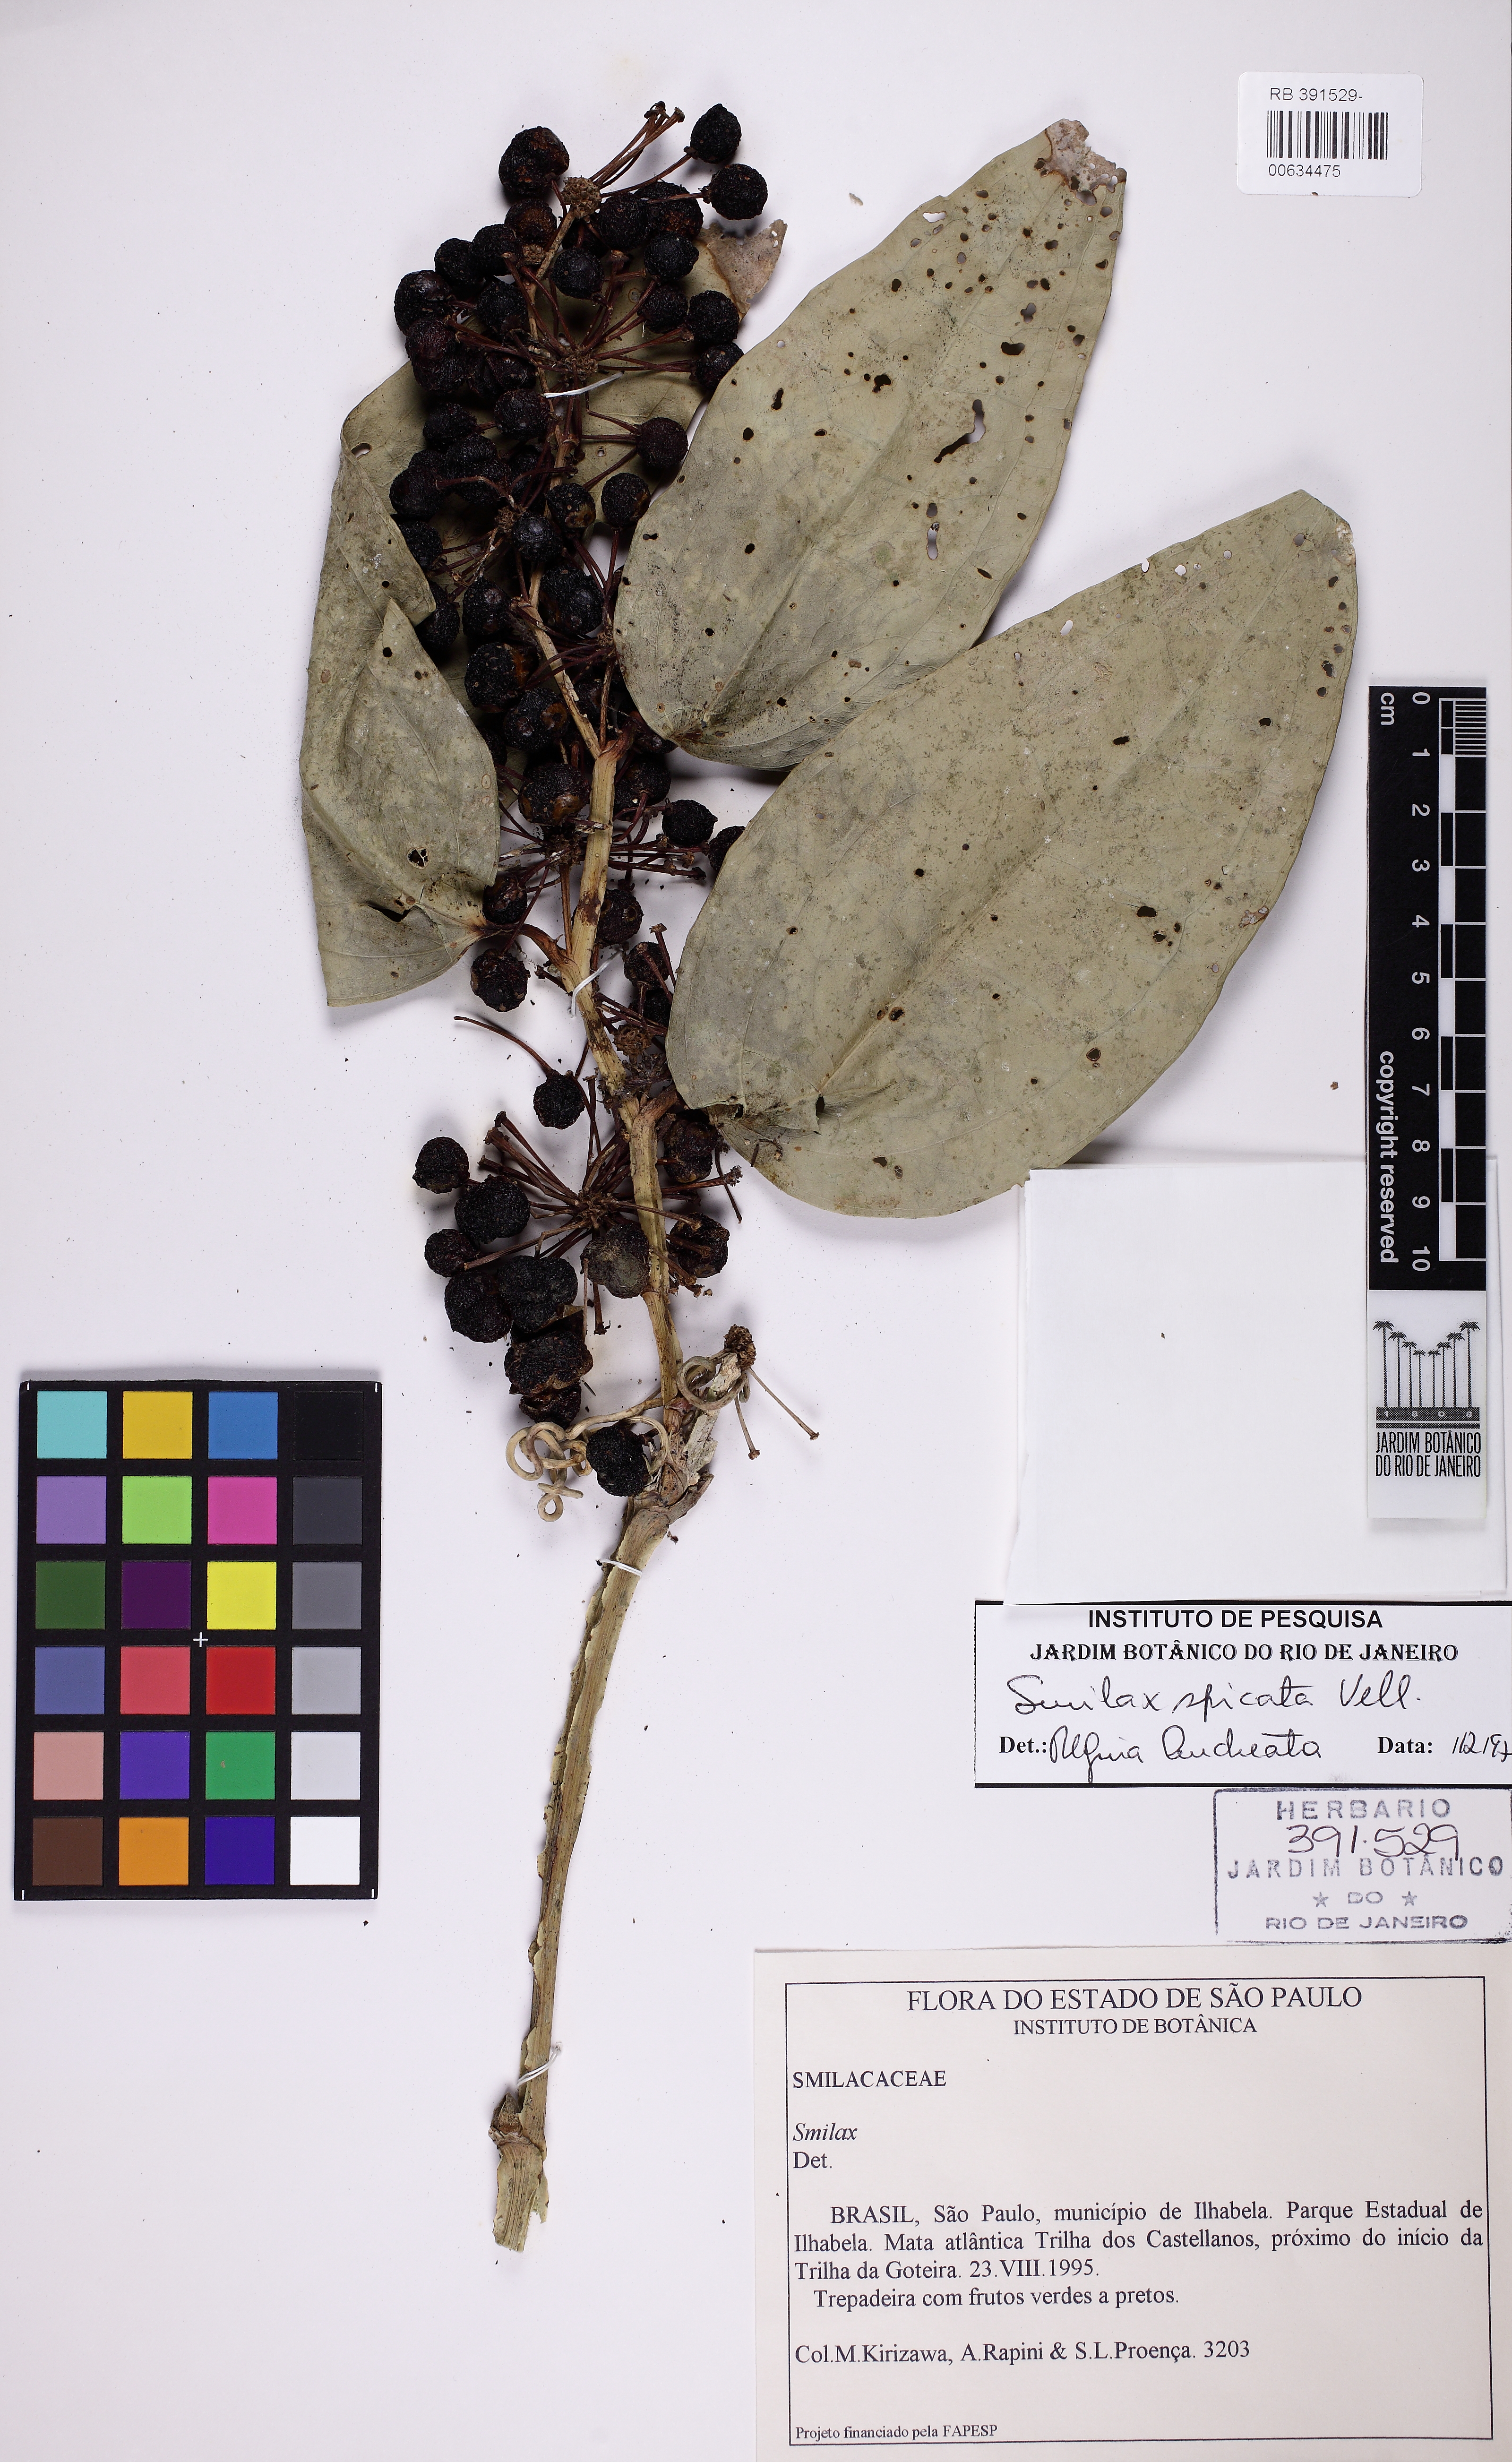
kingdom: Plantae
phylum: Tracheophyta
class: Liliopsida
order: Liliales
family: Smilacaceae
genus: Smilax
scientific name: Smilax spicata
